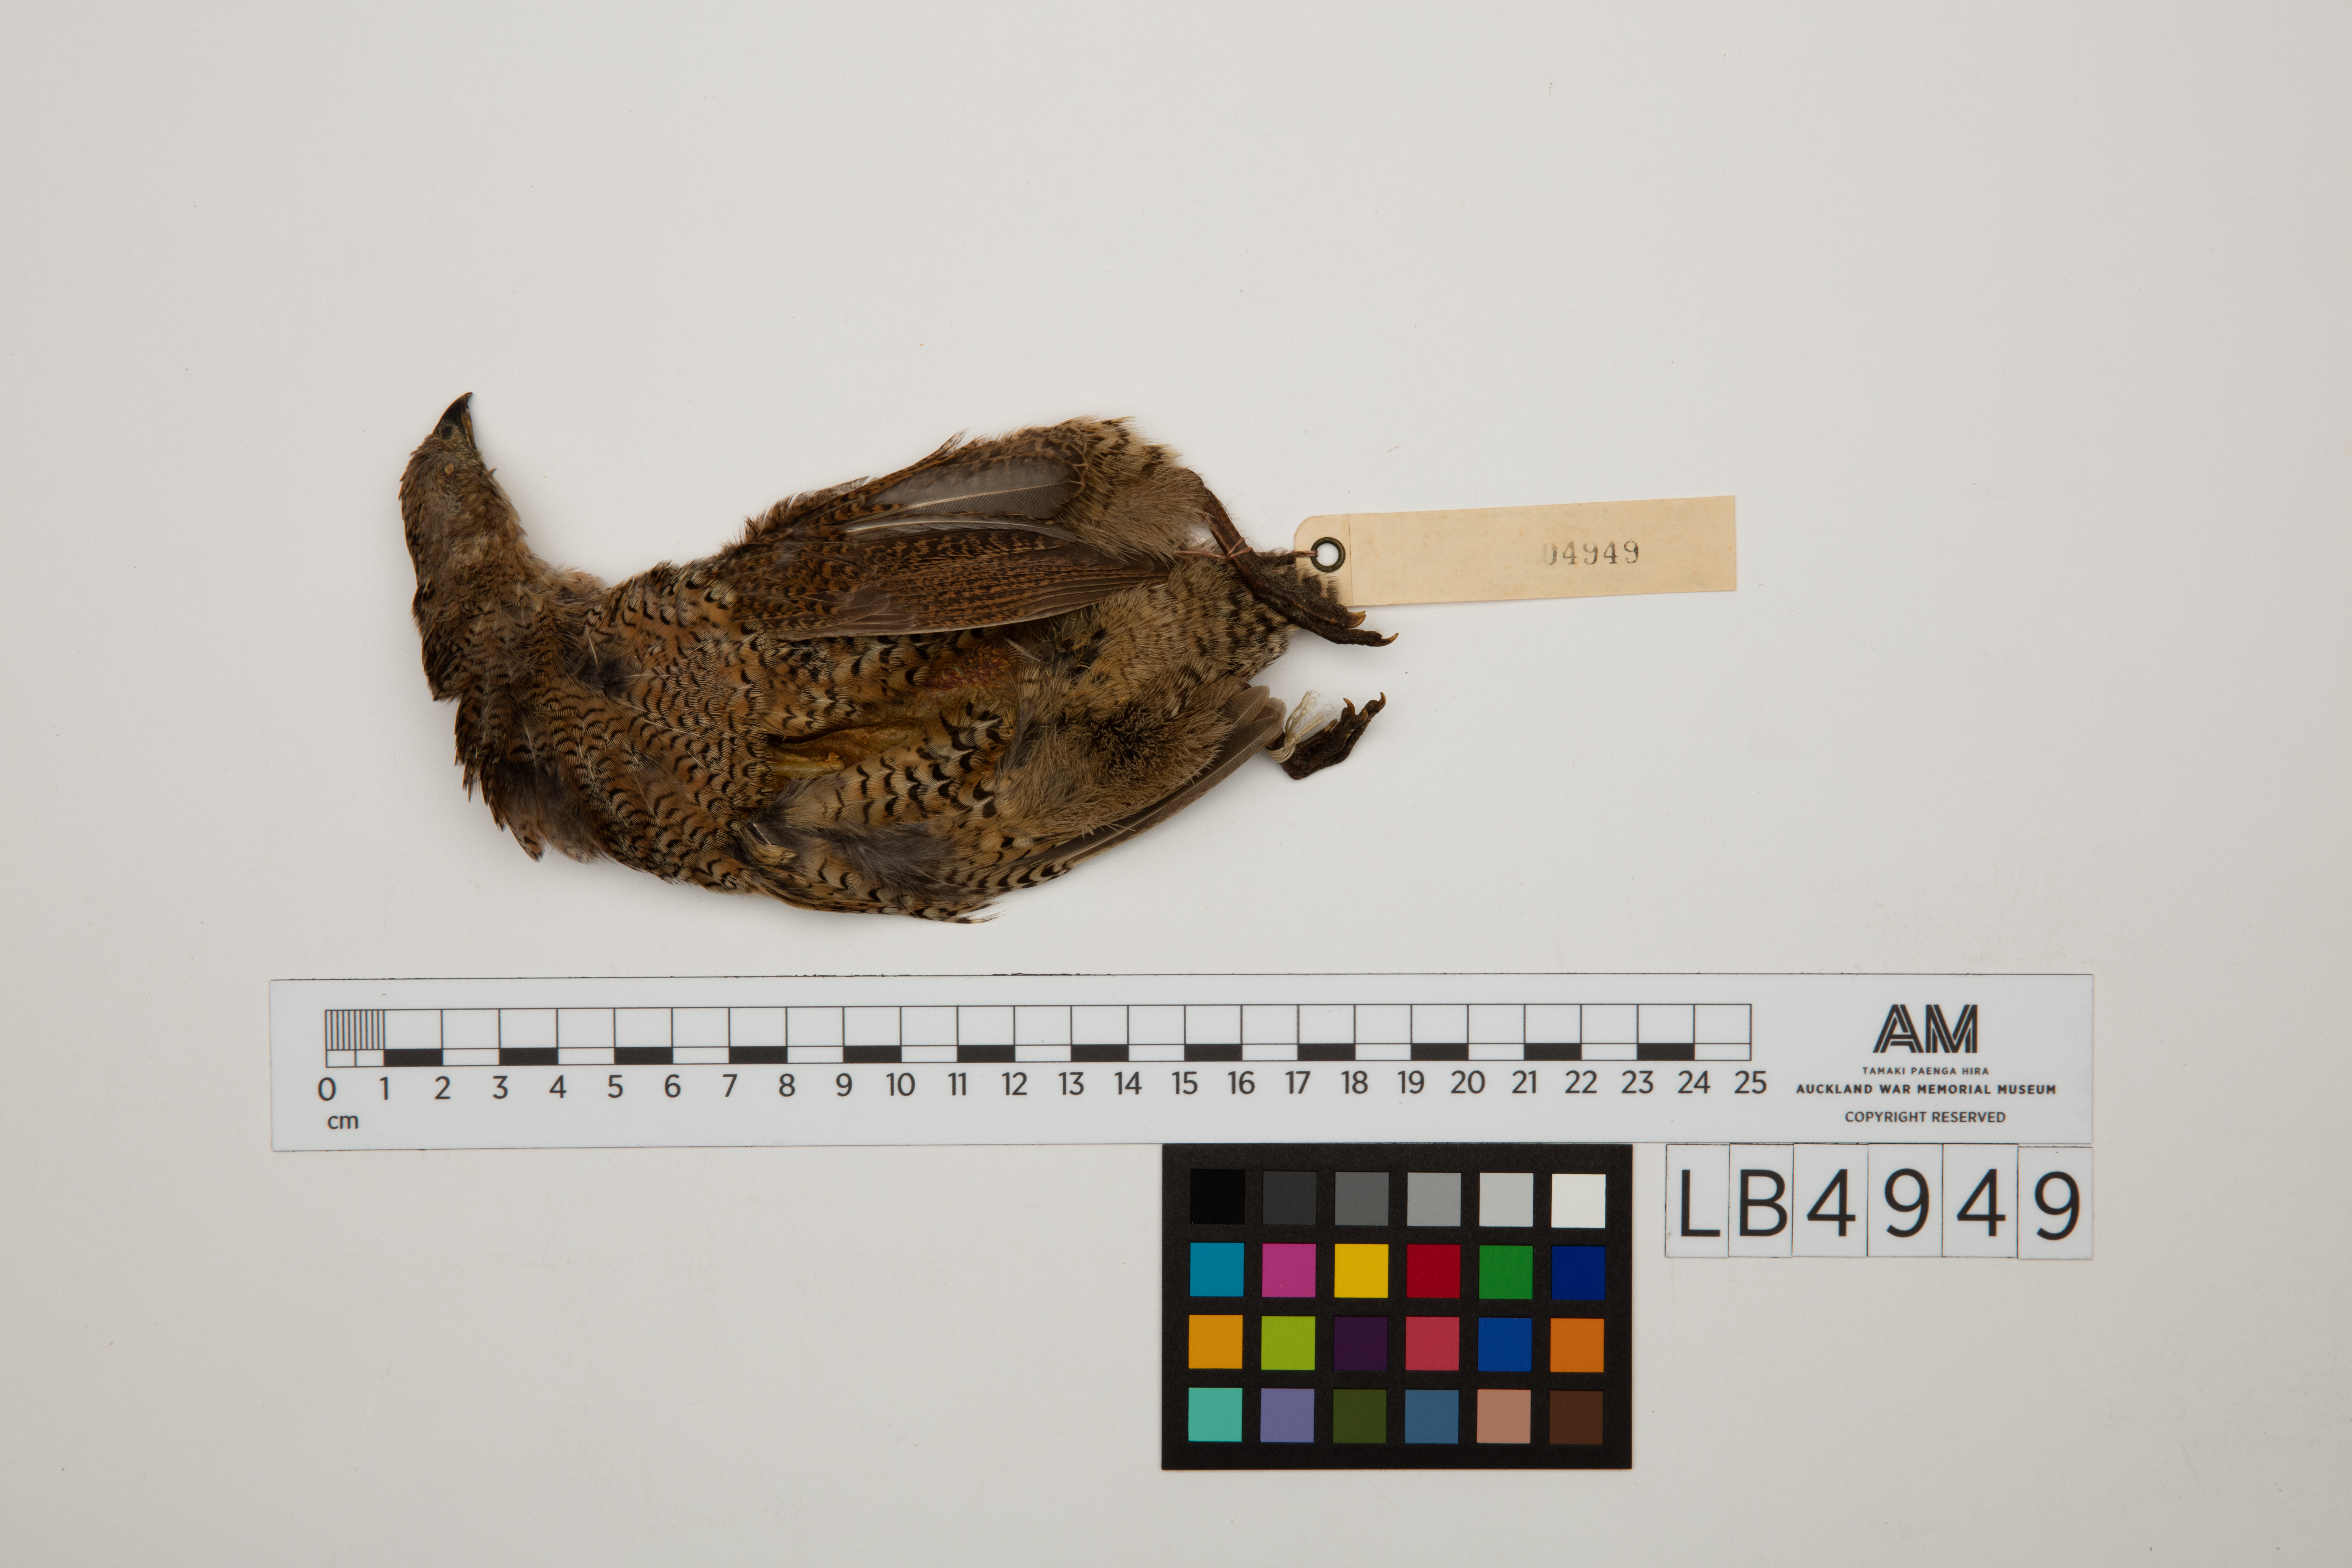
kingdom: Animalia
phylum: Chordata
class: Aves
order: Galliformes
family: Phasianidae
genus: Synoicus
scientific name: Synoicus ypsilophorus
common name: Brown quail
